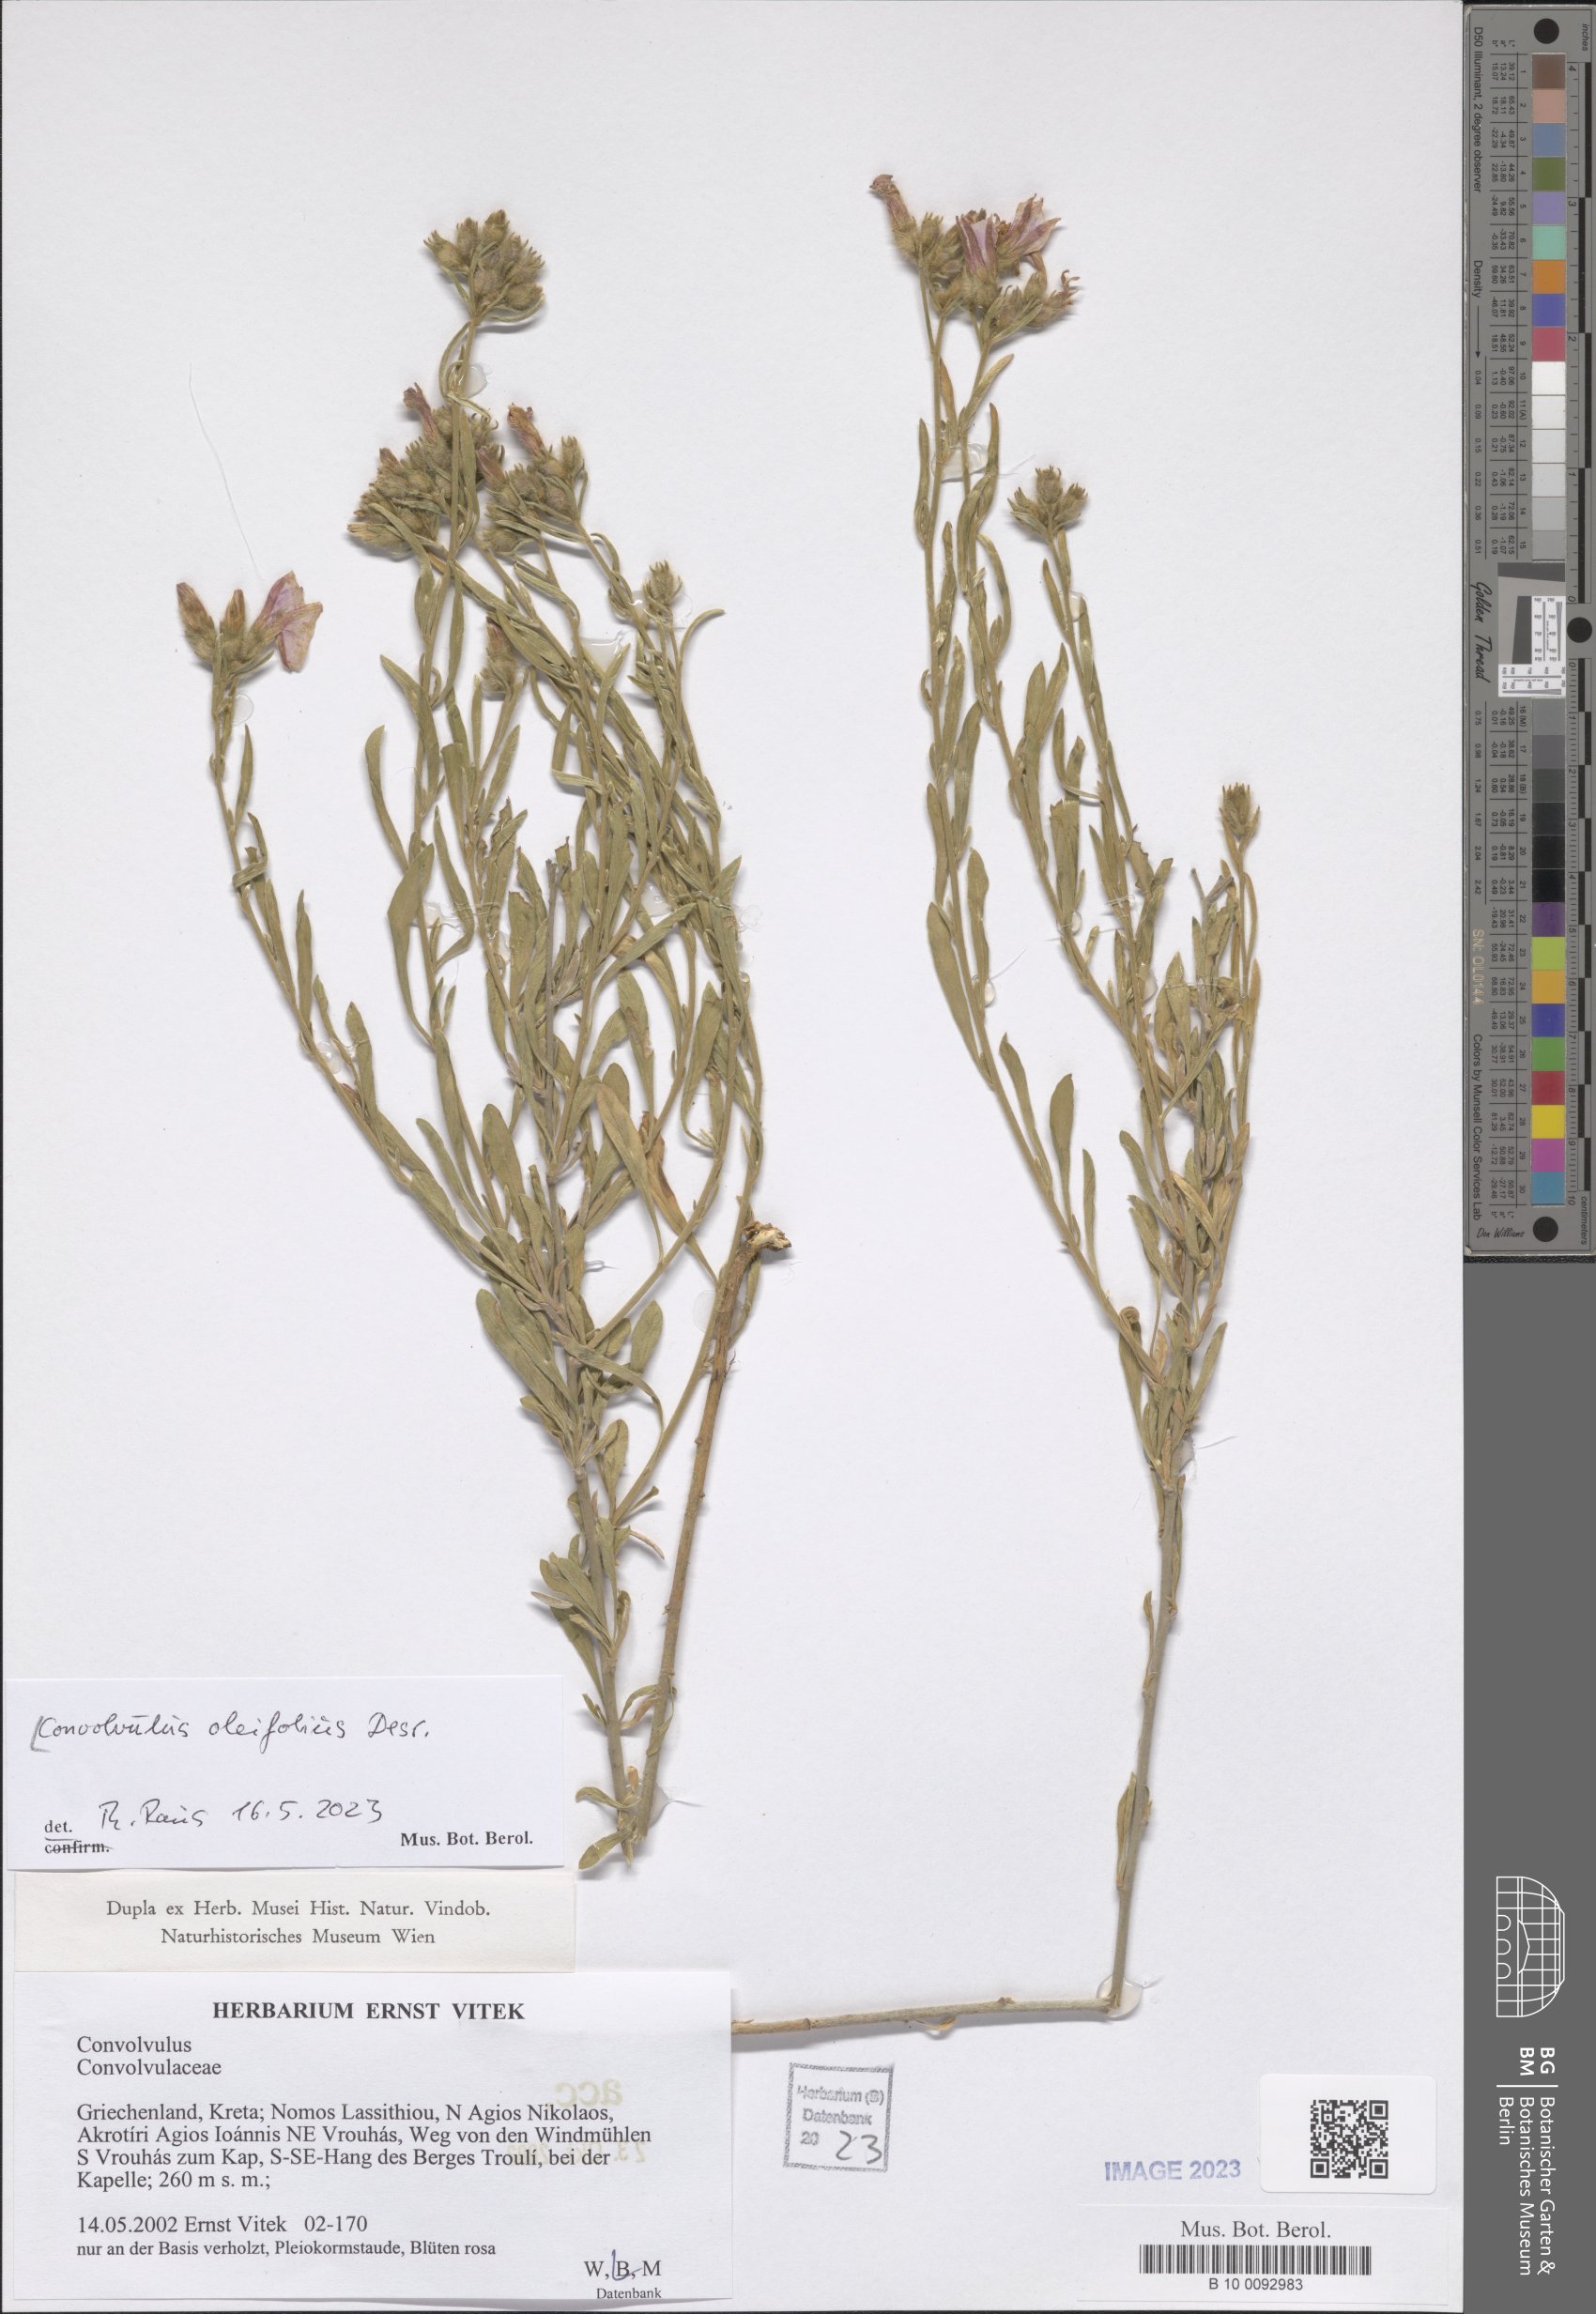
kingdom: Plantae
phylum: Tracheophyta
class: Magnoliopsida
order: Solanales
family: Convolvulaceae
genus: Convolvulus
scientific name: Convolvulus oleifolius
